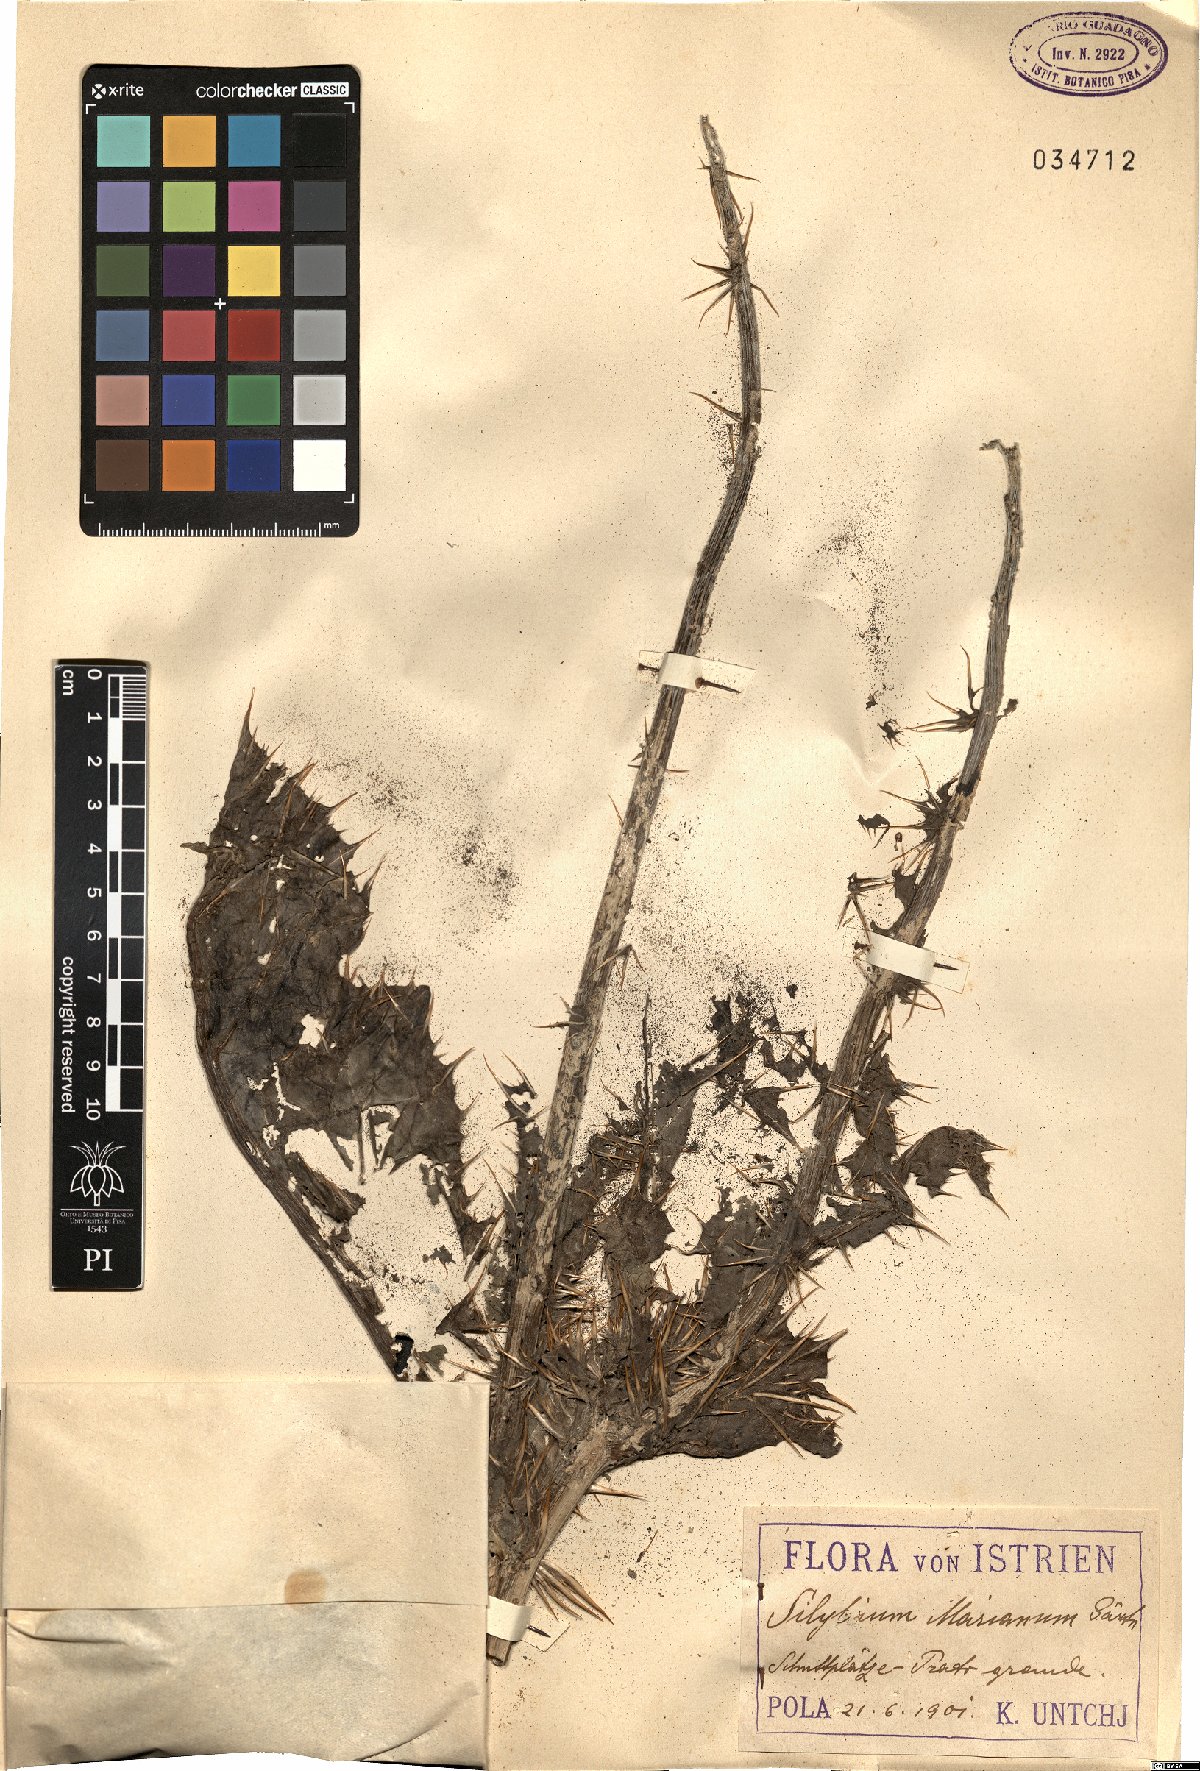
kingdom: Plantae
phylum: Tracheophyta
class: Magnoliopsida
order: Asterales
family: Asteraceae
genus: Silybum
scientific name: Silybum marianum
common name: Milk thistle
